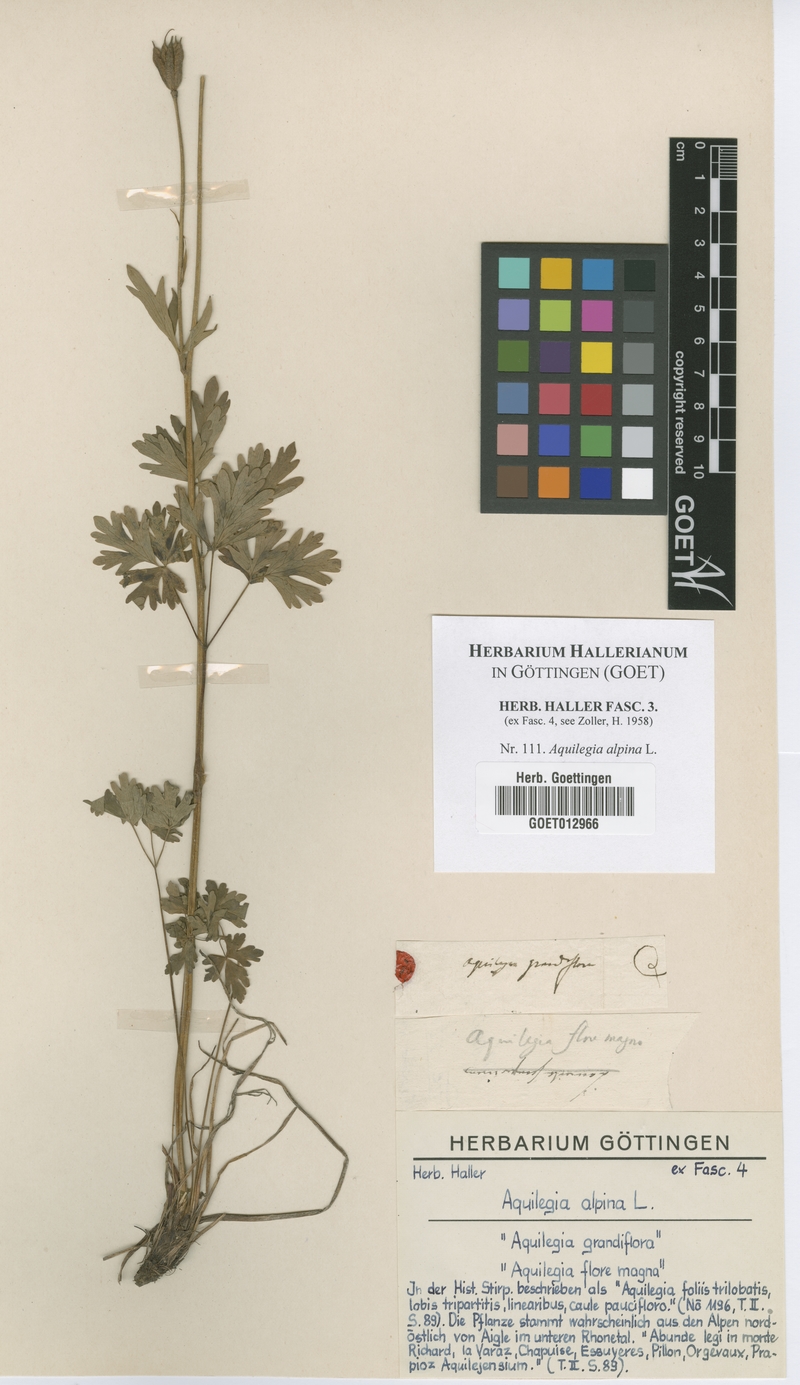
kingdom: Plantae
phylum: Tracheophyta
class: Magnoliopsida
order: Ranunculales
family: Ranunculaceae
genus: Aquilegia
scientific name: Aquilegia alpina
